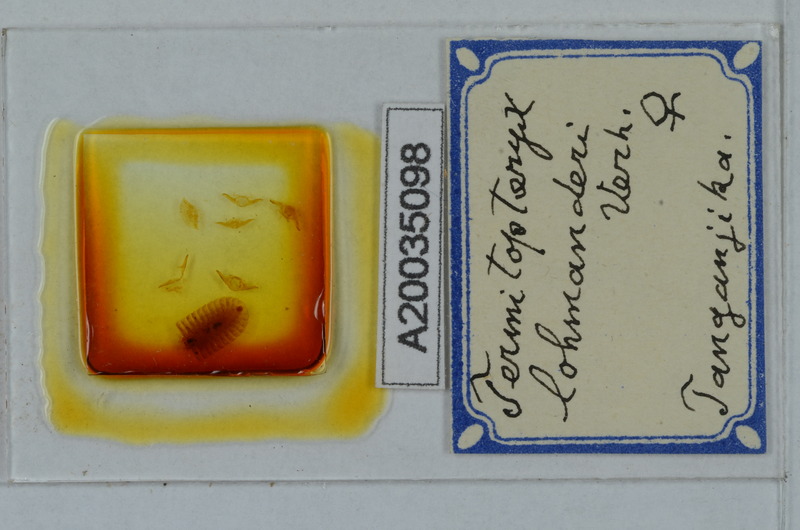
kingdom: Animalia
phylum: Arthropoda
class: Diplopoda
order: Polydesmida
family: Pyrgodesmidae
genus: Termitopteryx
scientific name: Termitopteryx lohmanderi
